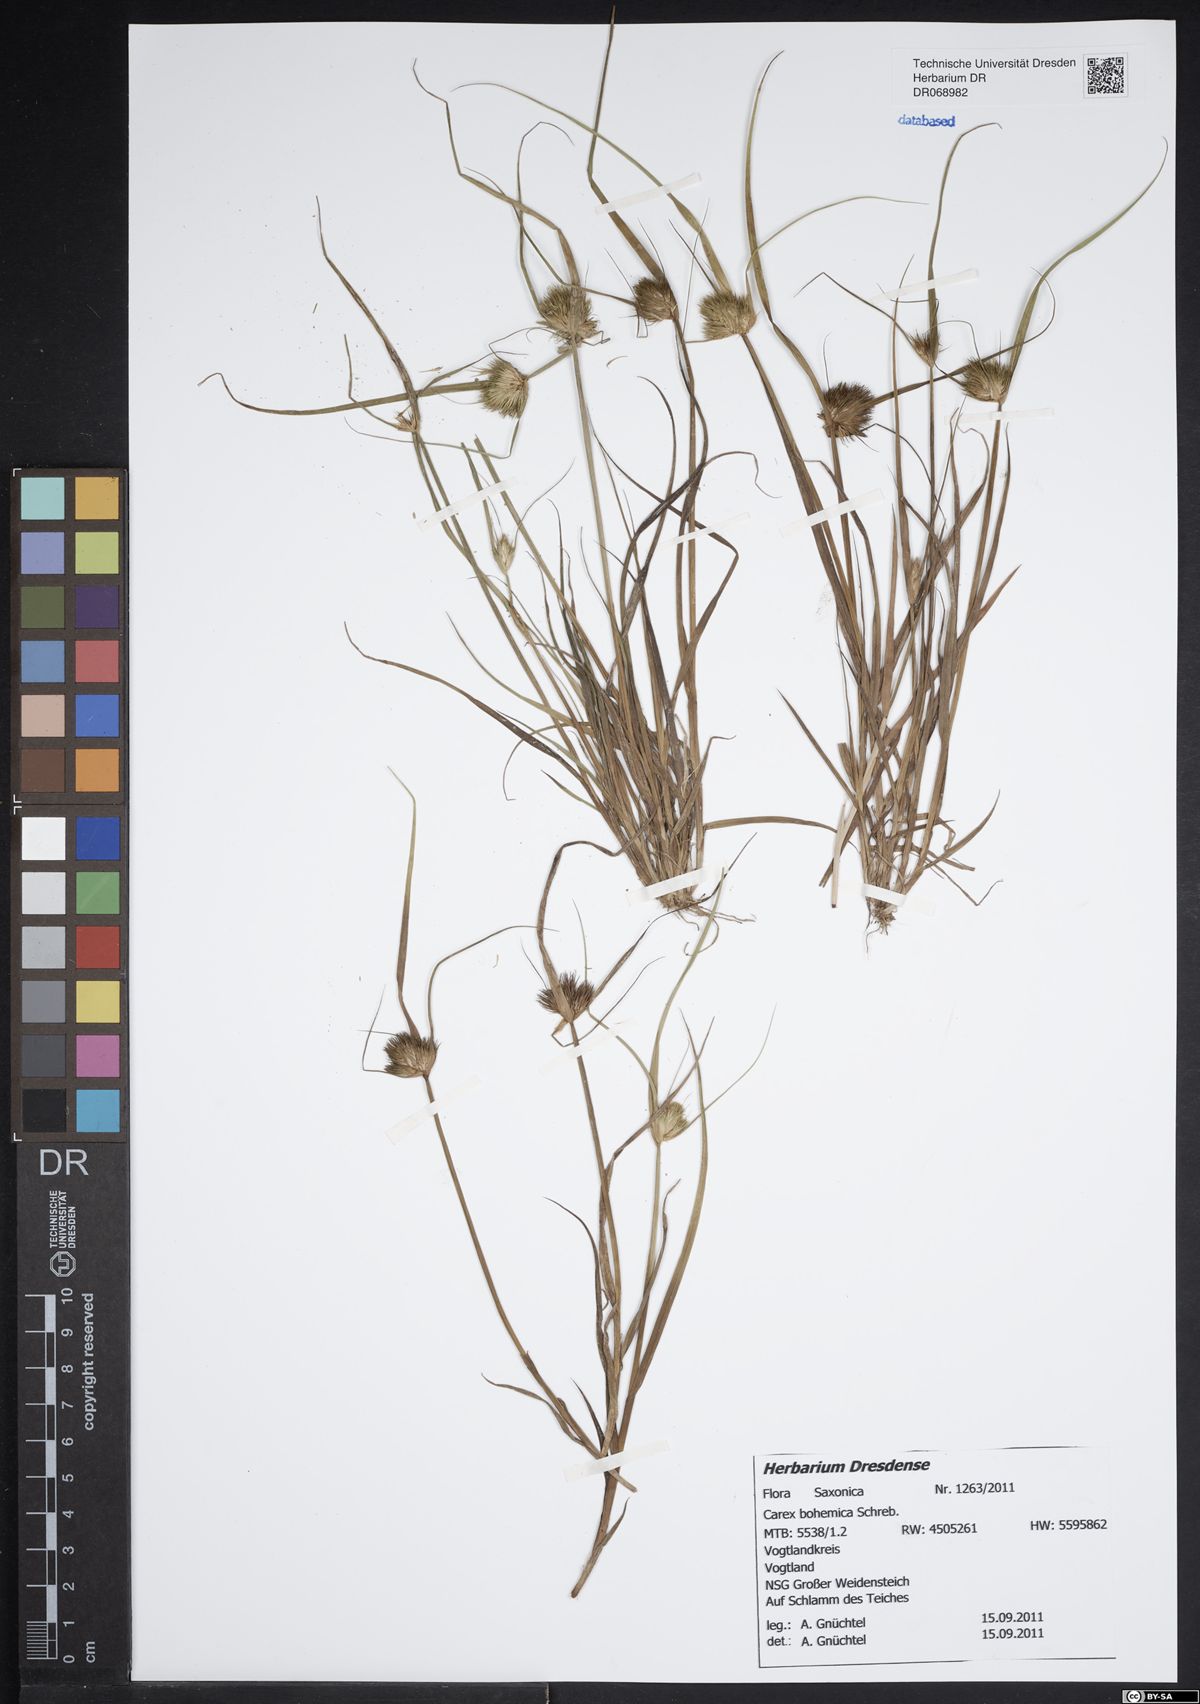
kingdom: Plantae
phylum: Tracheophyta
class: Liliopsida
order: Poales
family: Cyperaceae
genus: Carex
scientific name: Carex bohemica
